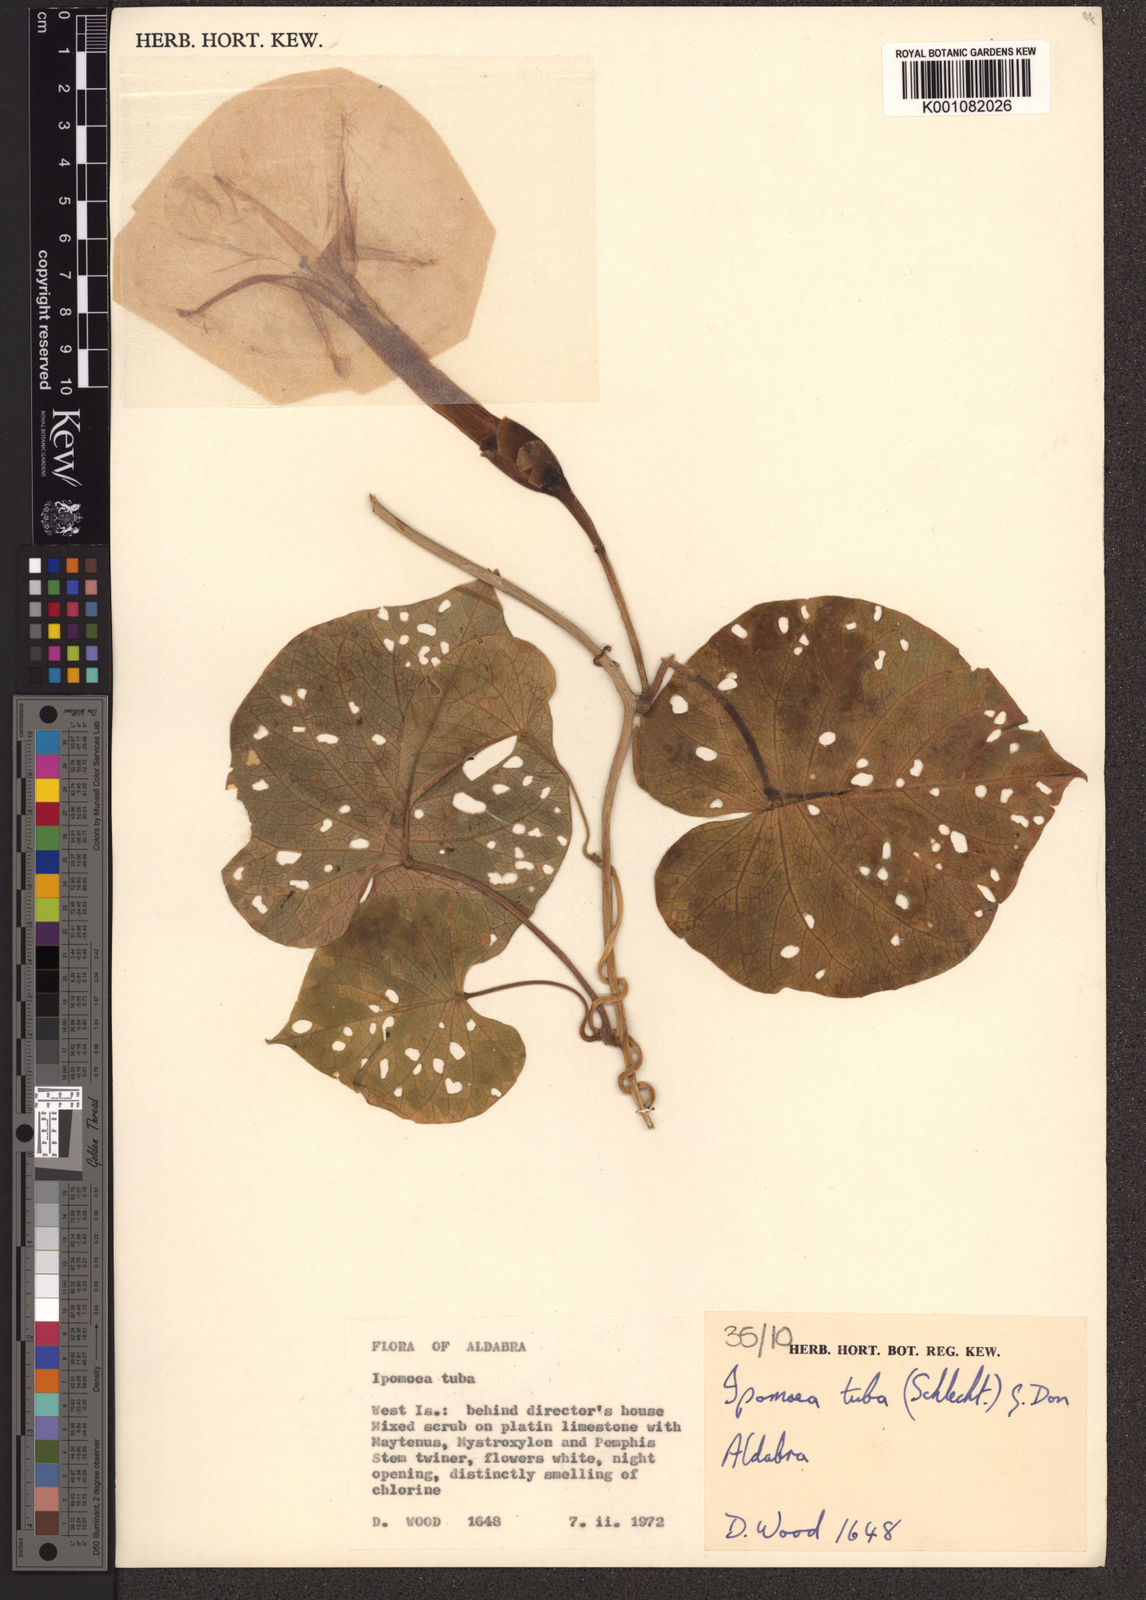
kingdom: Plantae
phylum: Tracheophyta
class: Magnoliopsida
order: Solanales
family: Convolvulaceae
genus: Ipomoea
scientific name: Ipomoea violacea
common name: Beach moonflower
